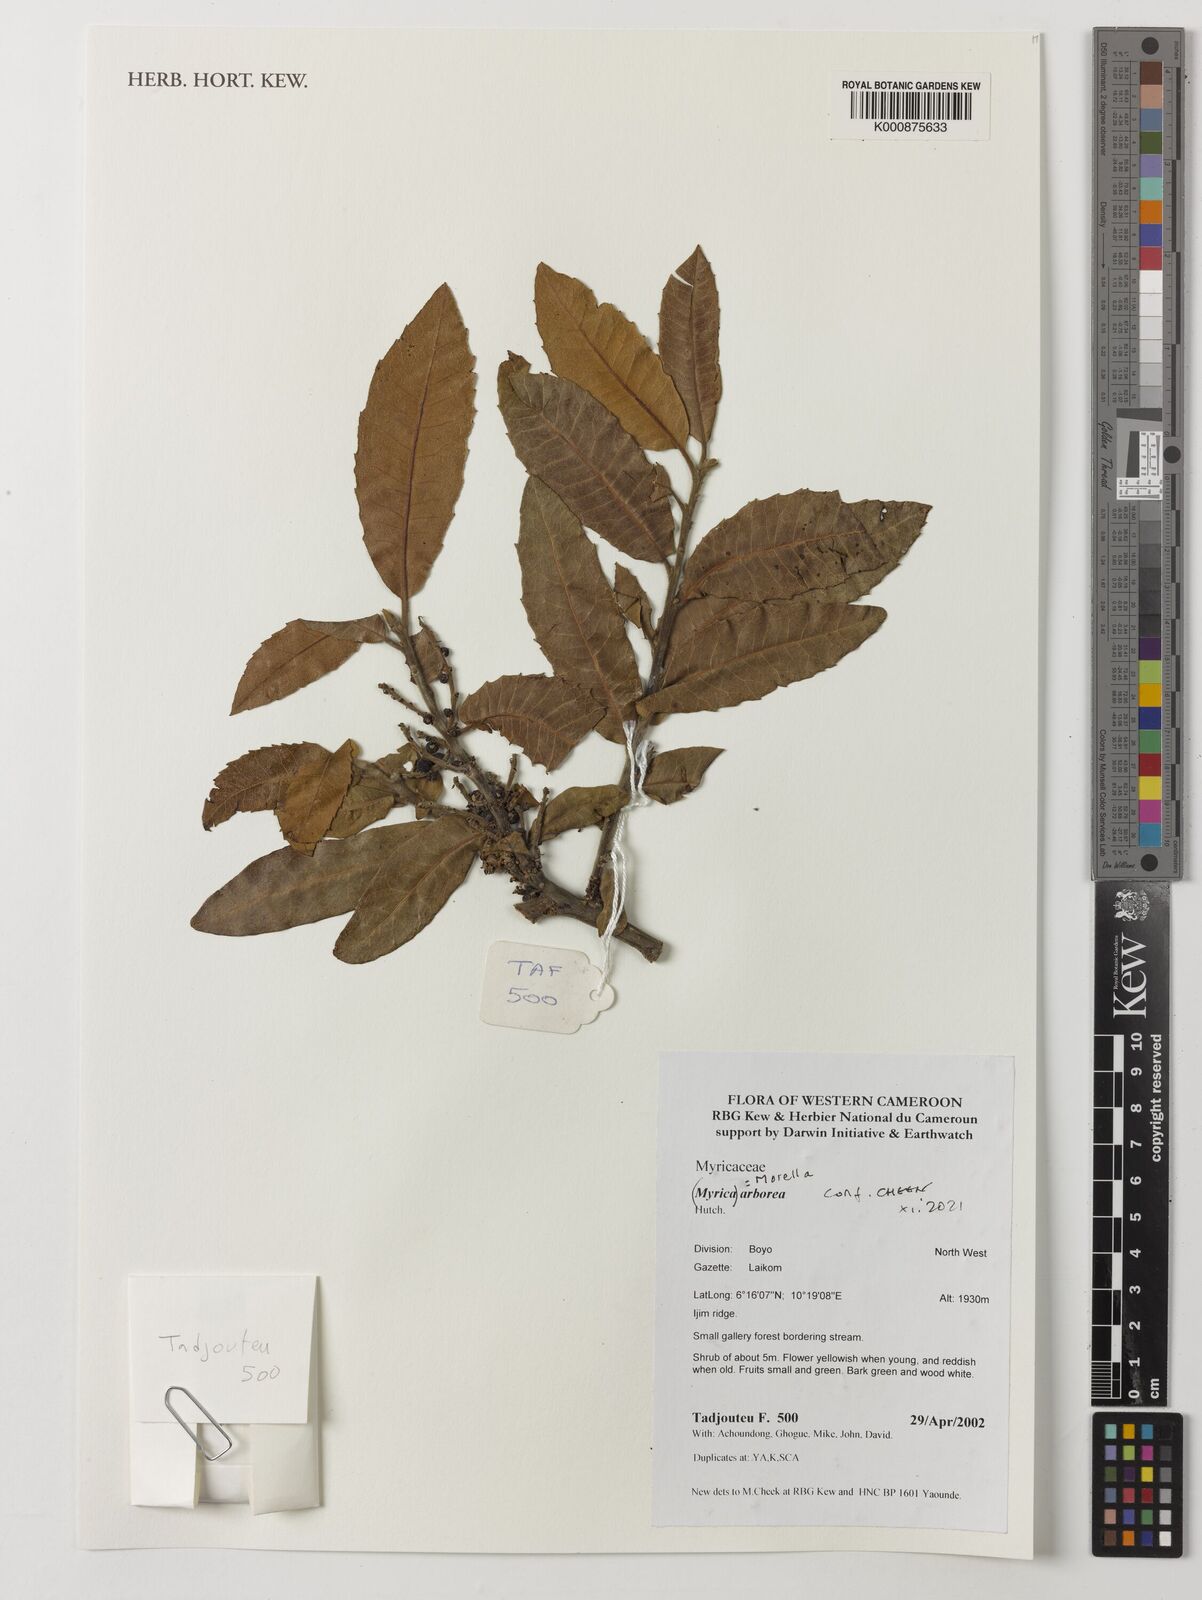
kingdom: Plantae
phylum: Tracheophyta
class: Magnoliopsida
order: Fagales
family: Myricaceae
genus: Morella
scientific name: Morella arborea
